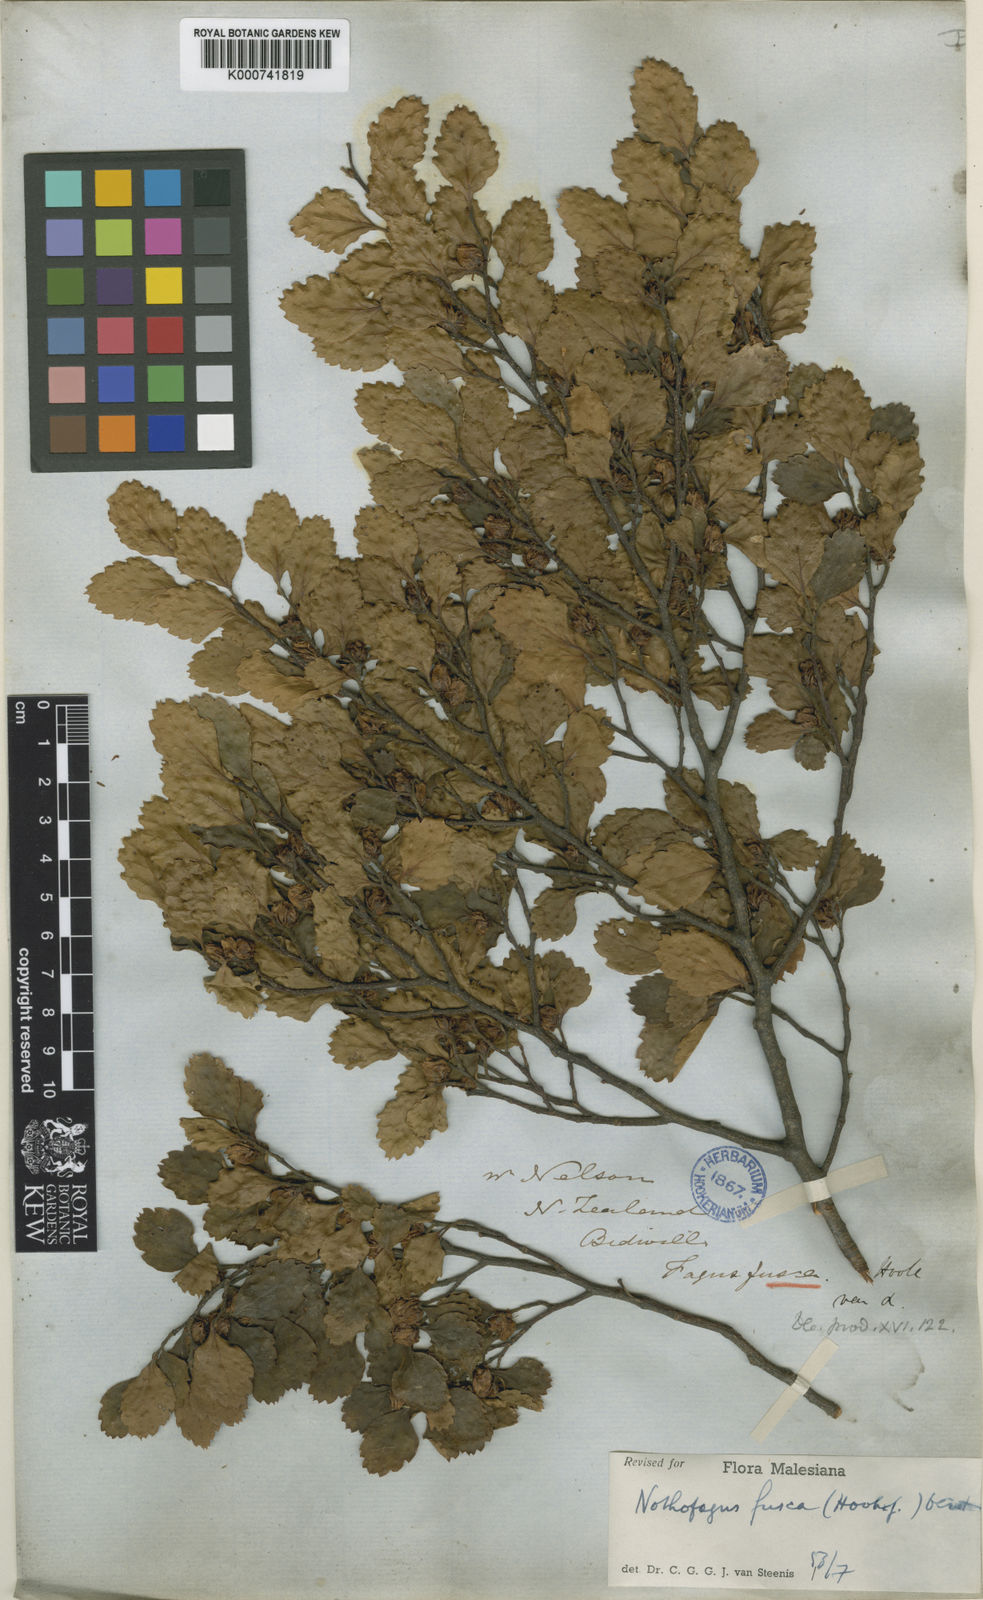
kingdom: Plantae
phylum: Tracheophyta
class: Magnoliopsida
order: Fagales
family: Nothofagaceae
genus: Nothofagus
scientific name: Nothofagus fusca
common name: Red beech
